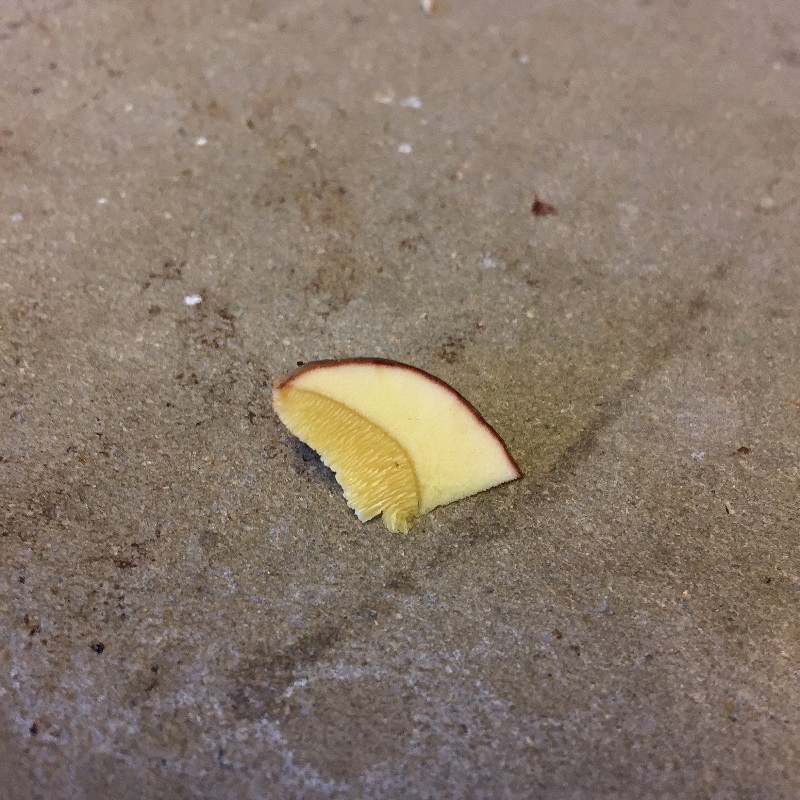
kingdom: Fungi
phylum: Basidiomycota
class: Agaricomycetes
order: Boletales
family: Boletaceae
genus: Xerocomellus
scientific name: Xerocomellus pruinatus
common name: dugget rørhat
